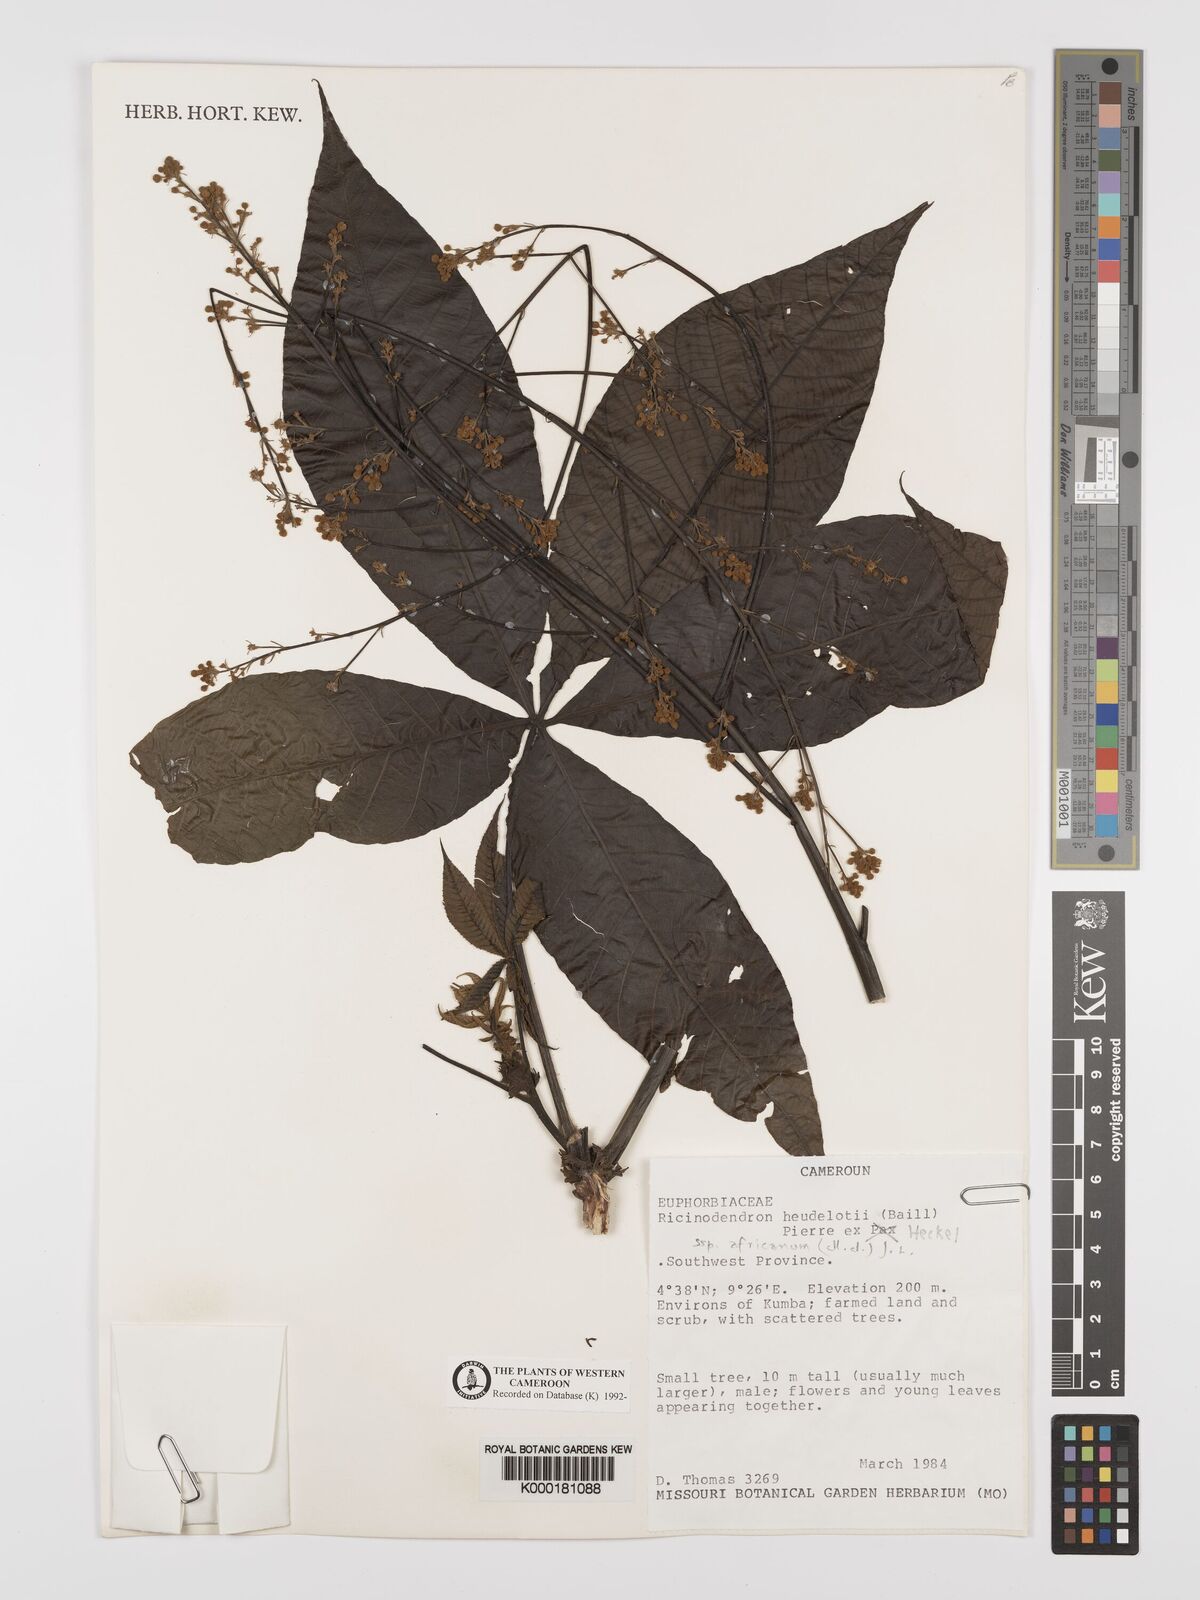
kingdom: Plantae
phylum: Tracheophyta
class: Magnoliopsida
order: Malpighiales
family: Euphorbiaceae
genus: Ricinodendron
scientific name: Ricinodendron heudelotii
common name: African nut-tree
